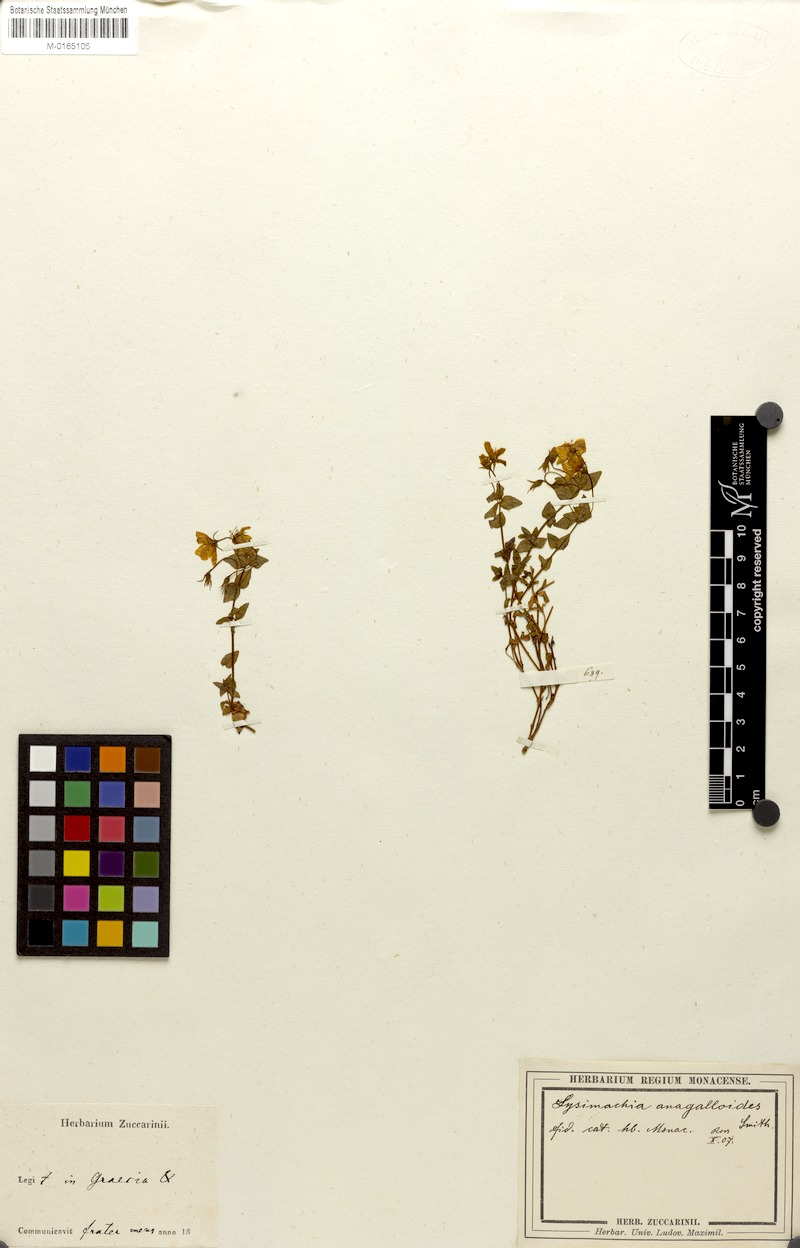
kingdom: Plantae
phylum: Tracheophyta
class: Magnoliopsida
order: Ericales
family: Primulaceae
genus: Lysimachia
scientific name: Lysimachia serpyllifolia
